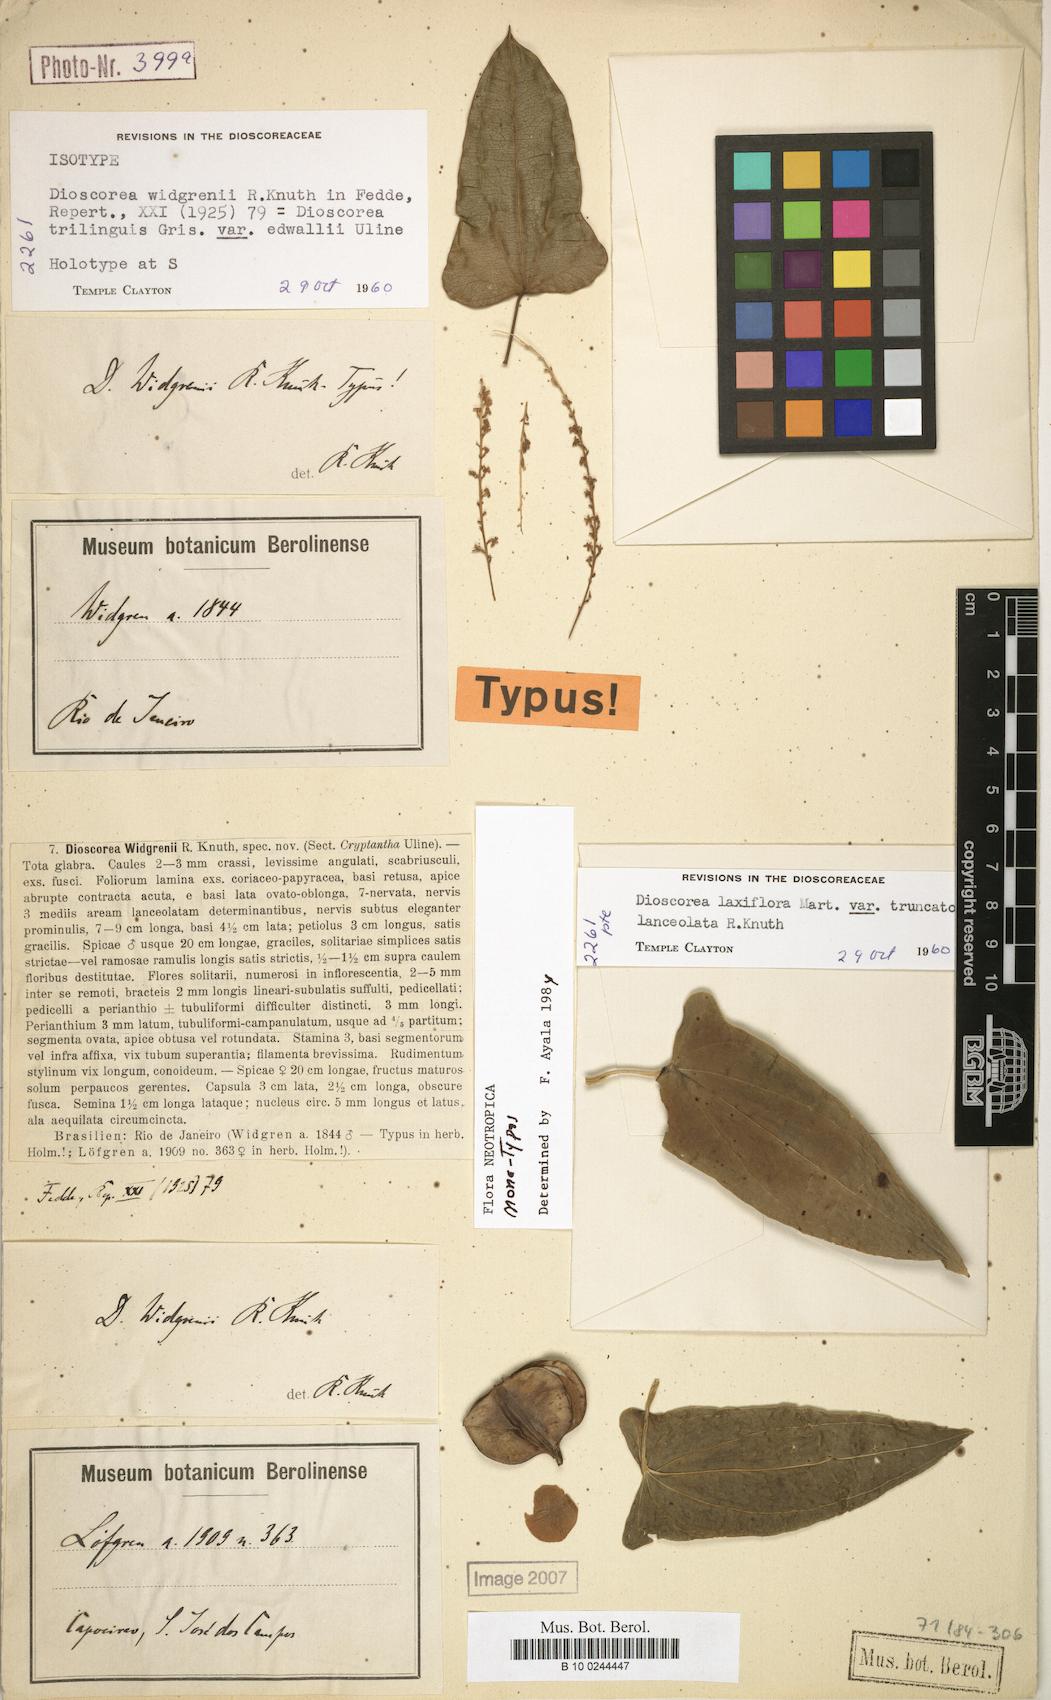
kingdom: Plantae
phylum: Tracheophyta
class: Liliopsida
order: Dioscoreales
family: Dioscoreaceae
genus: Dioscorea
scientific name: Dioscorea widgrenii
